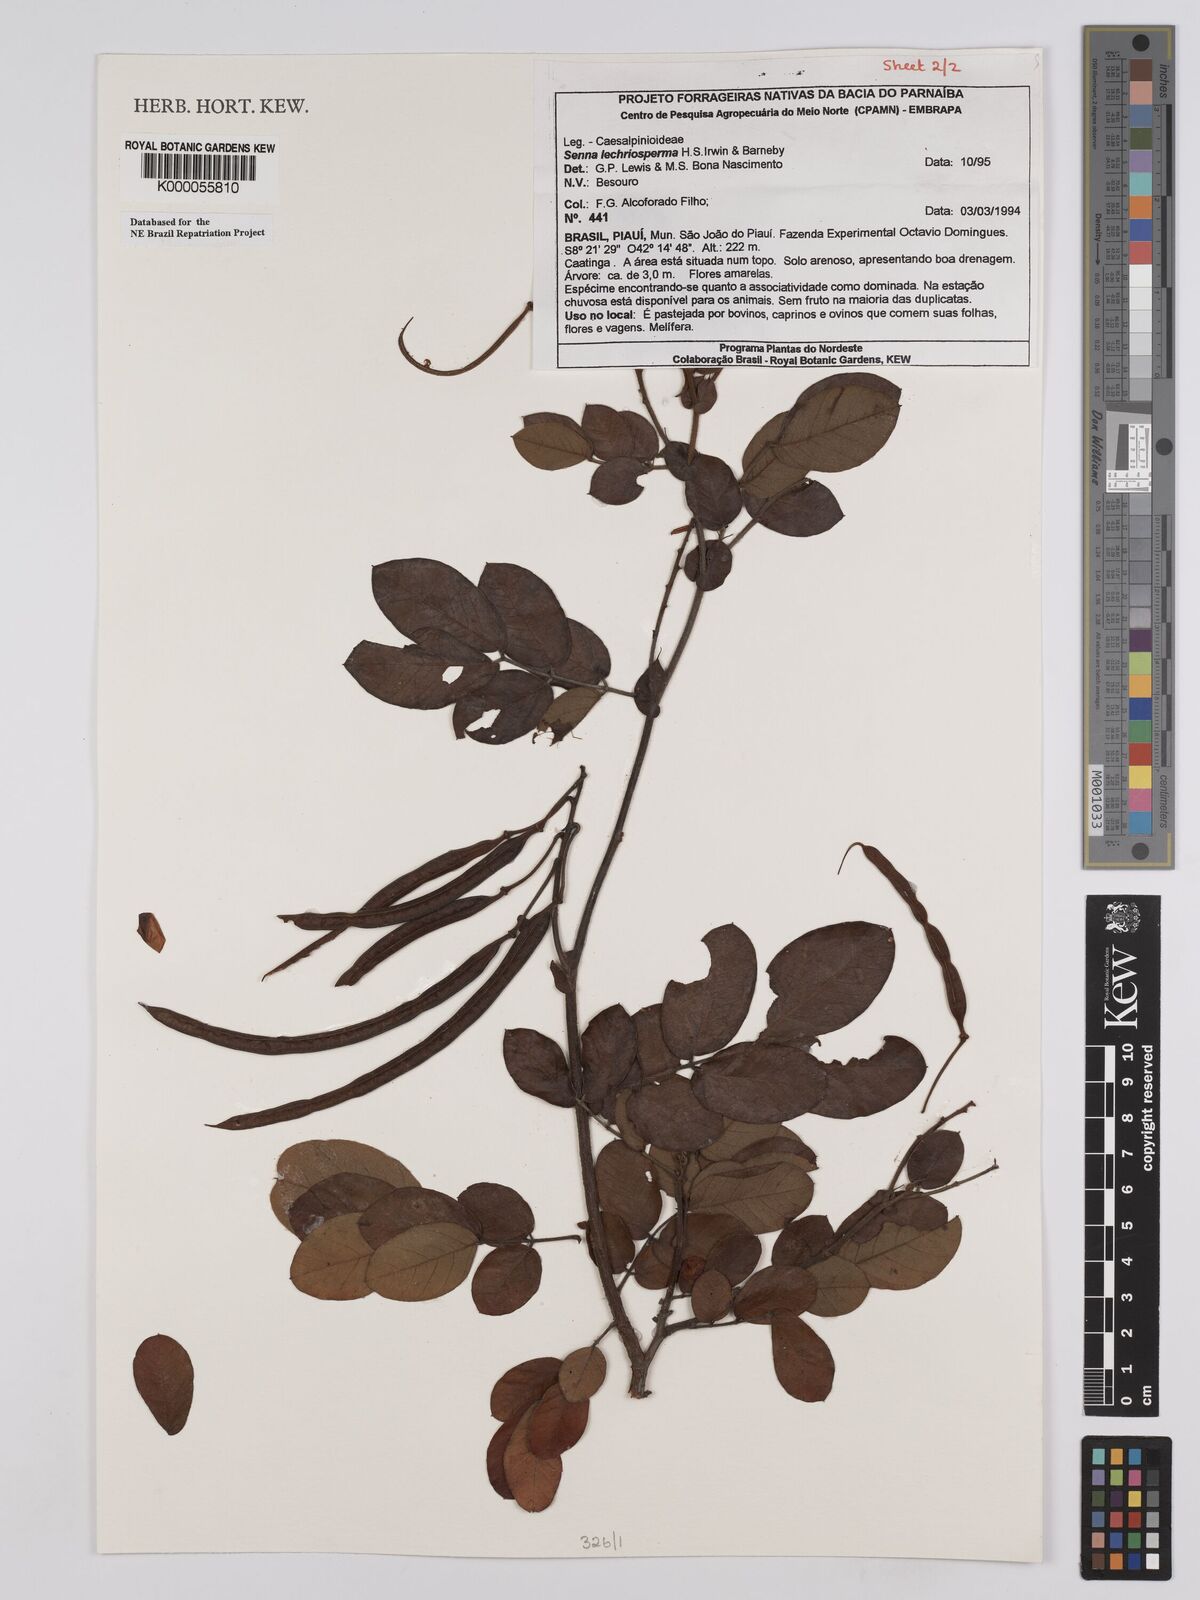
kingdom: Plantae
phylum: Tracheophyta
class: Magnoliopsida
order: Fabales
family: Fabaceae
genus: Senna
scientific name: Senna lechriosperma
